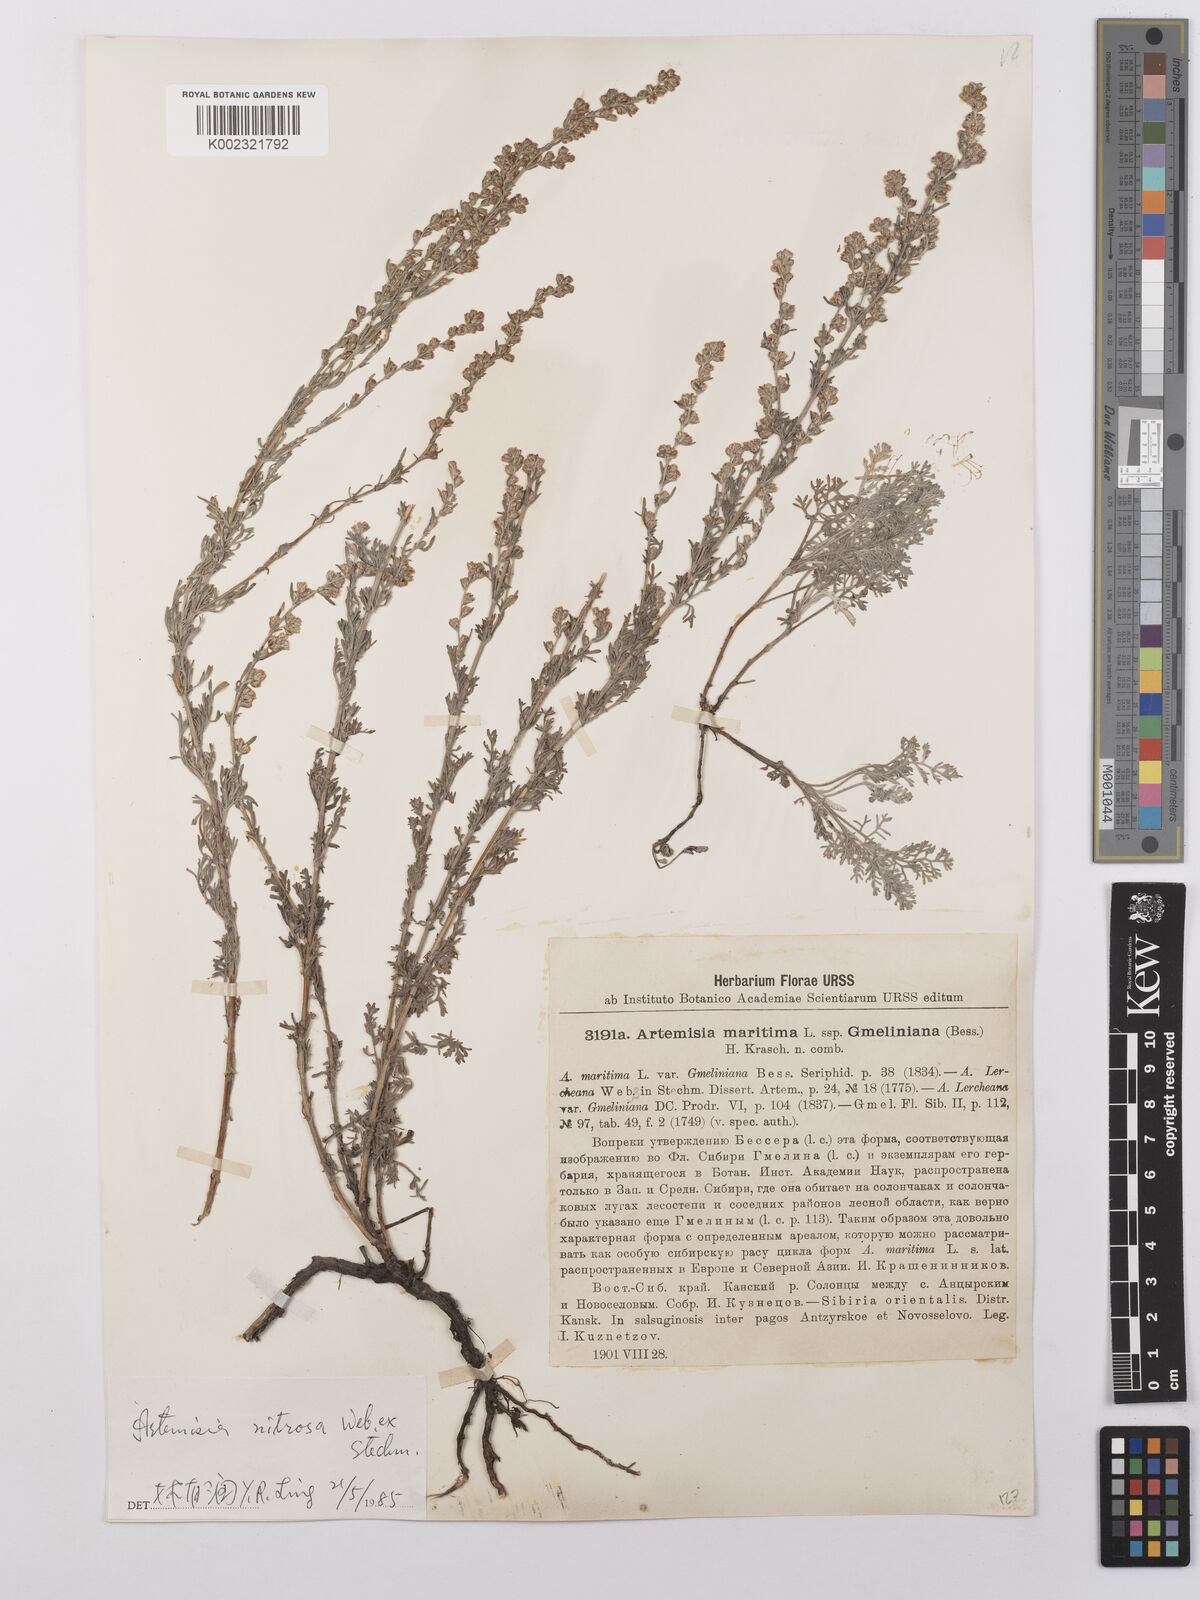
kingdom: Plantae
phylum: Tracheophyta
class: Magnoliopsida
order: Asterales
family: Asteraceae
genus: Artemisia
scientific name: Artemisia nitrosa
